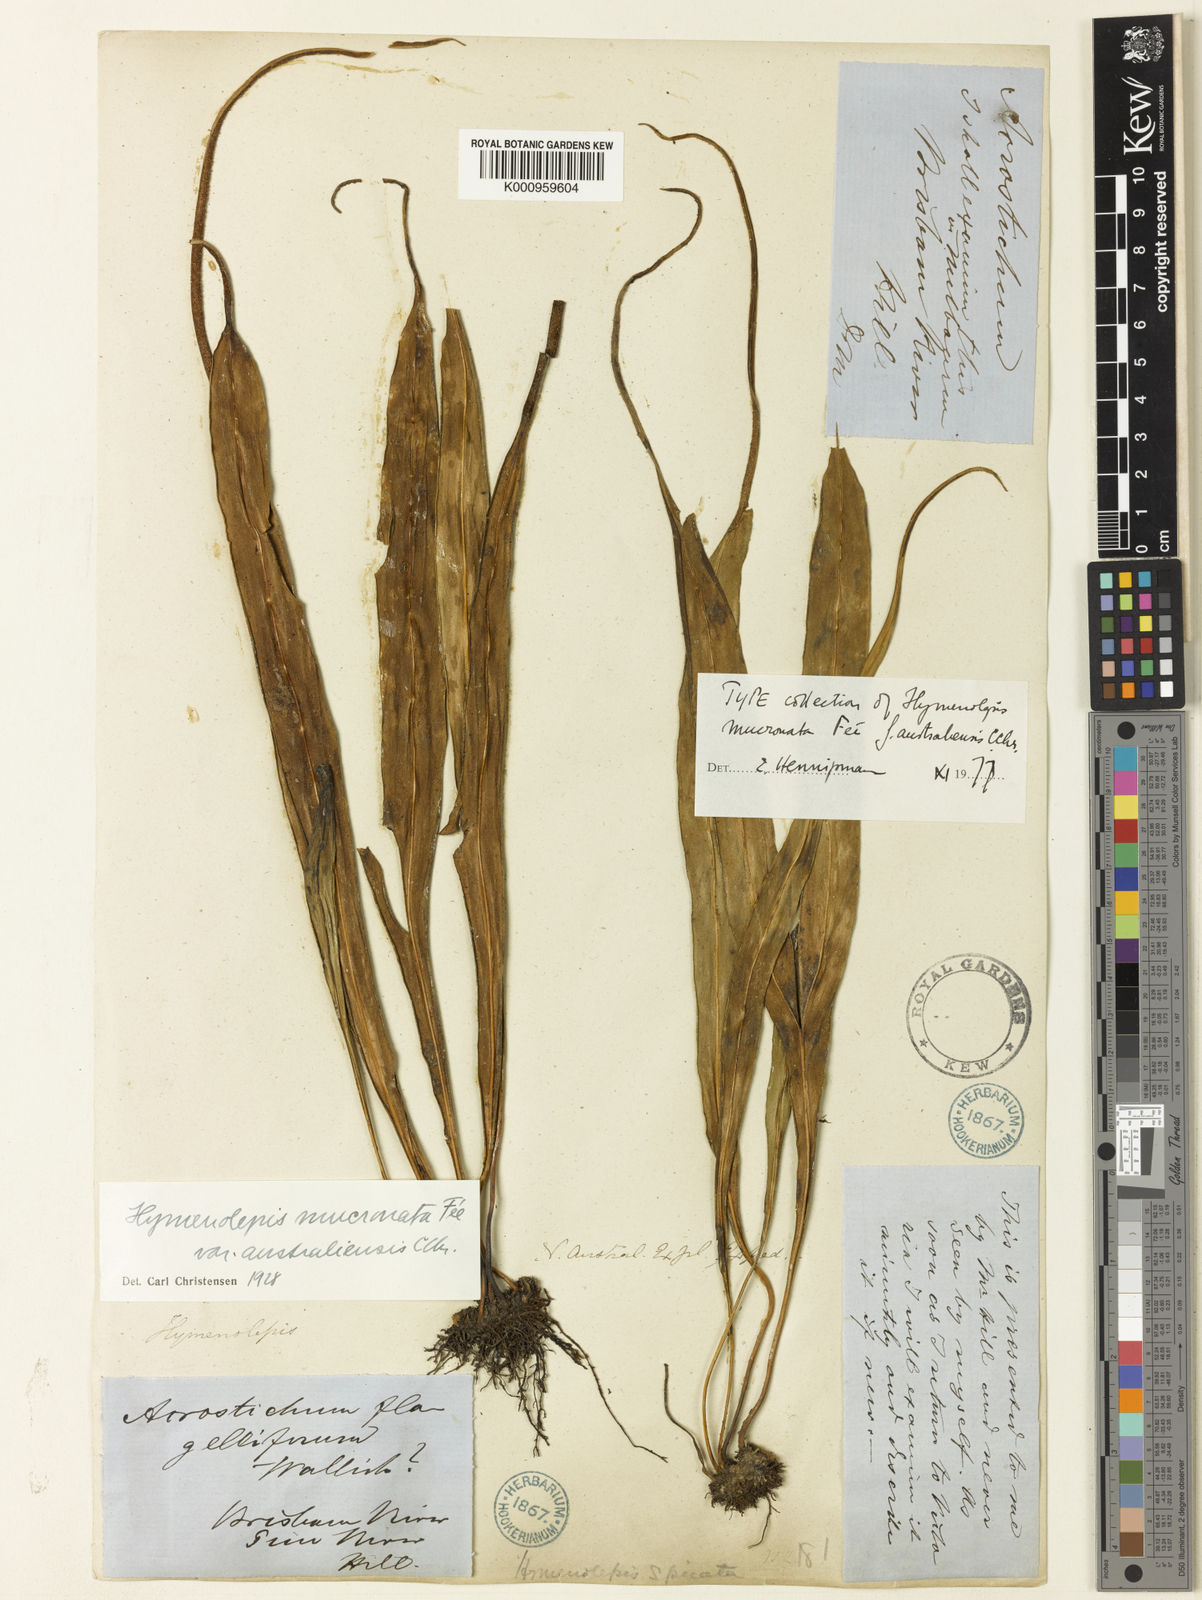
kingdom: Plantae
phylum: Tracheophyta
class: Polypodiopsida
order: Polypodiales
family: Polypodiaceae
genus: Lepisorus
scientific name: Lepisorus mucronatus
